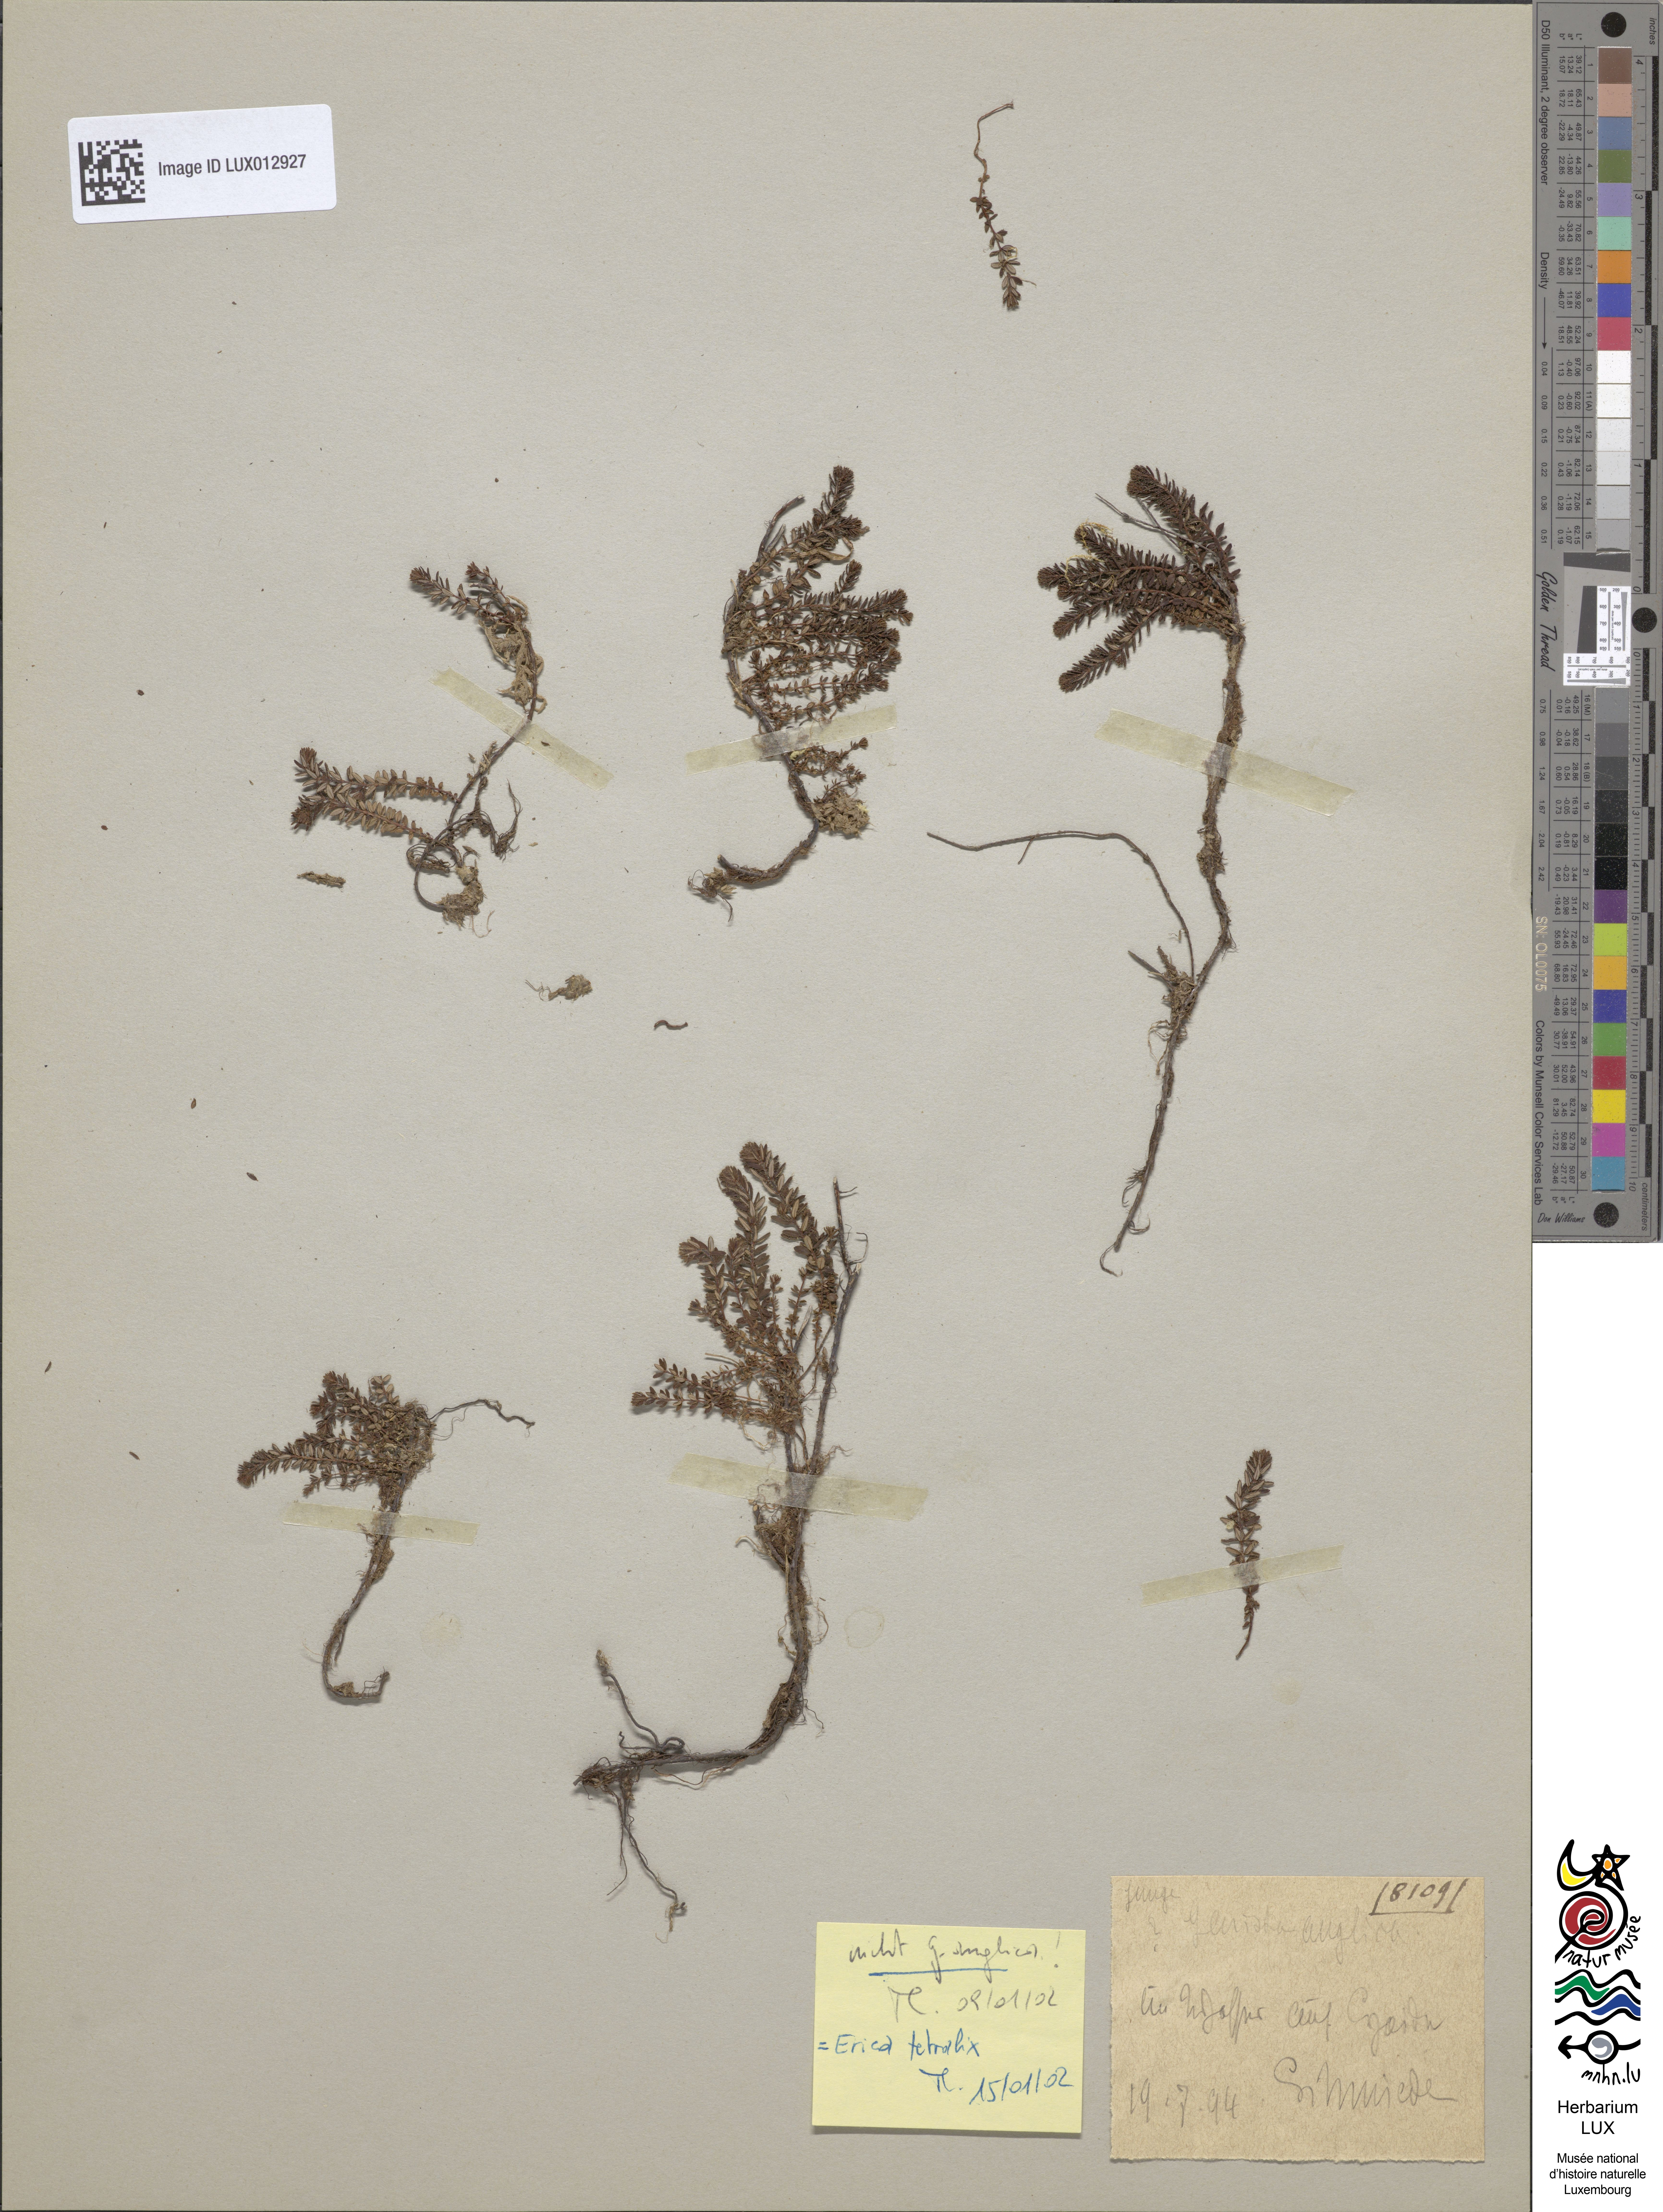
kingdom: Plantae
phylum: Tracheophyta
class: Magnoliopsida
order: Ericales
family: Ericaceae
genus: Erica
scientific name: Erica tetralix
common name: Cross-leaved heath
